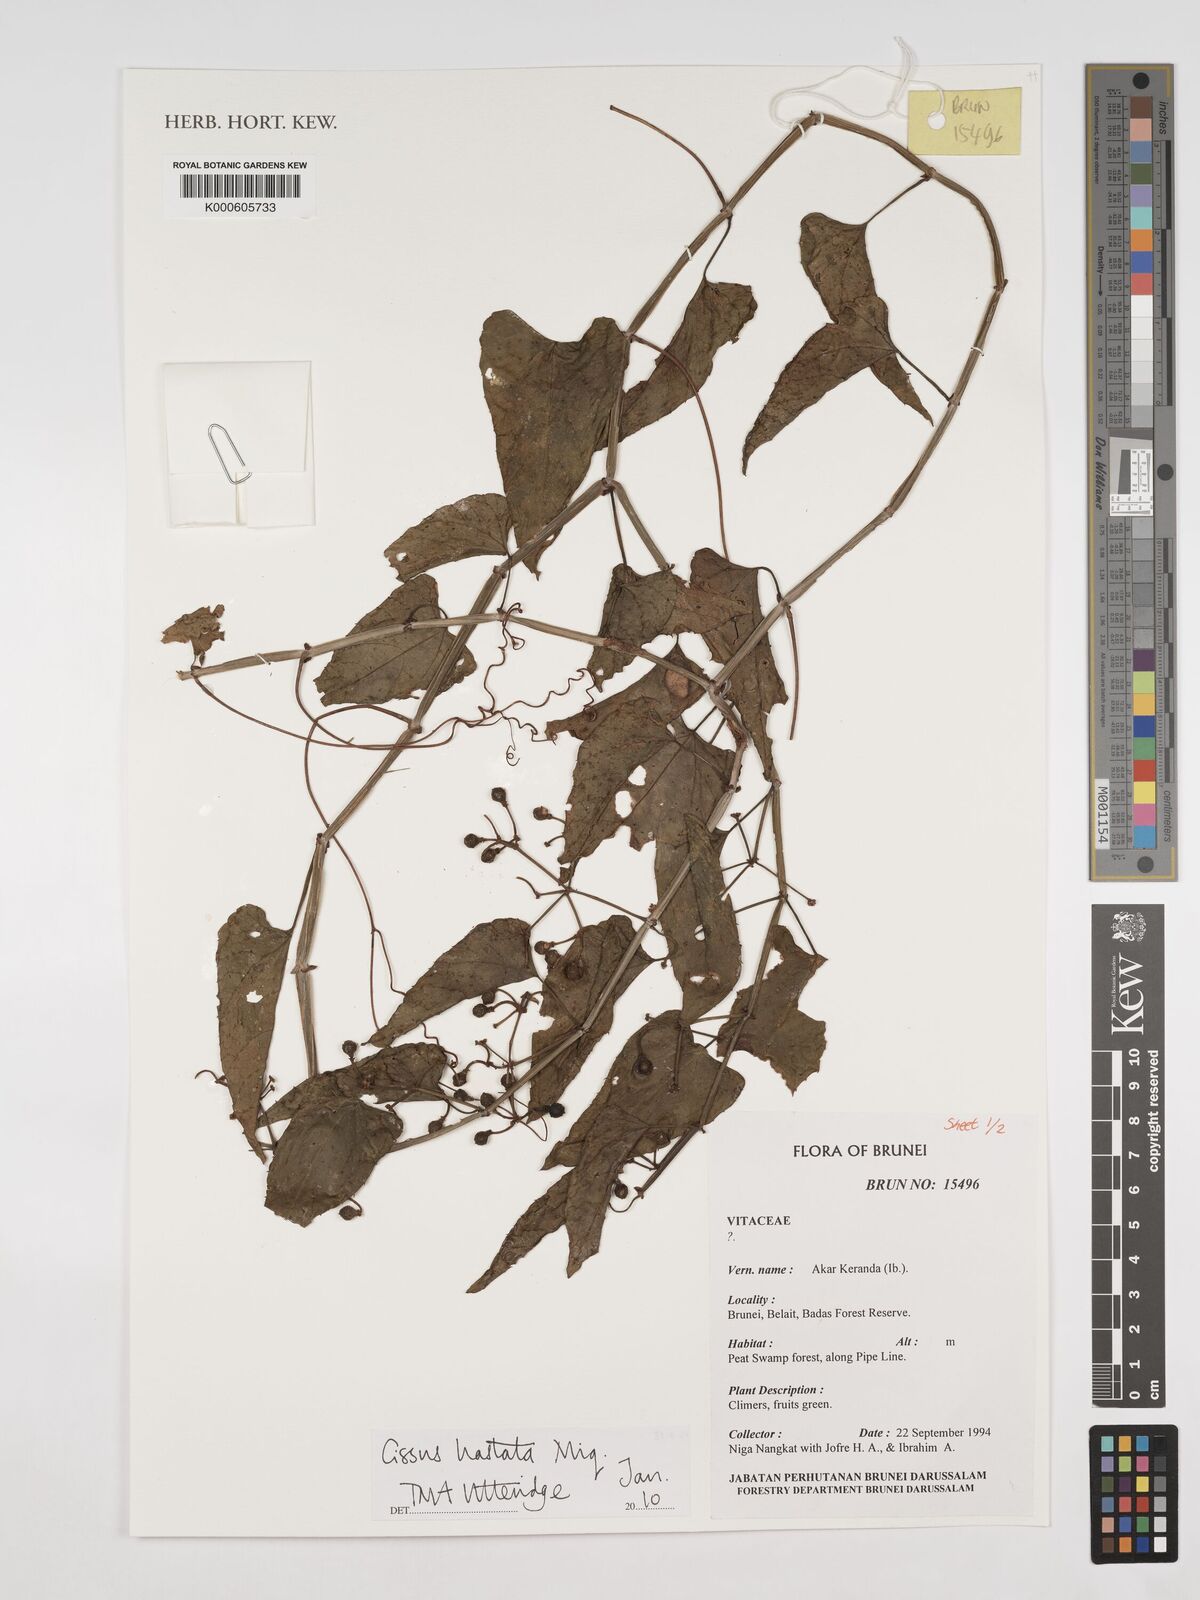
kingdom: Plantae
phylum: Tracheophyta
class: Magnoliopsida
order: Vitales
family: Vitaceae
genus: Cissus
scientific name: Cissus hastata
